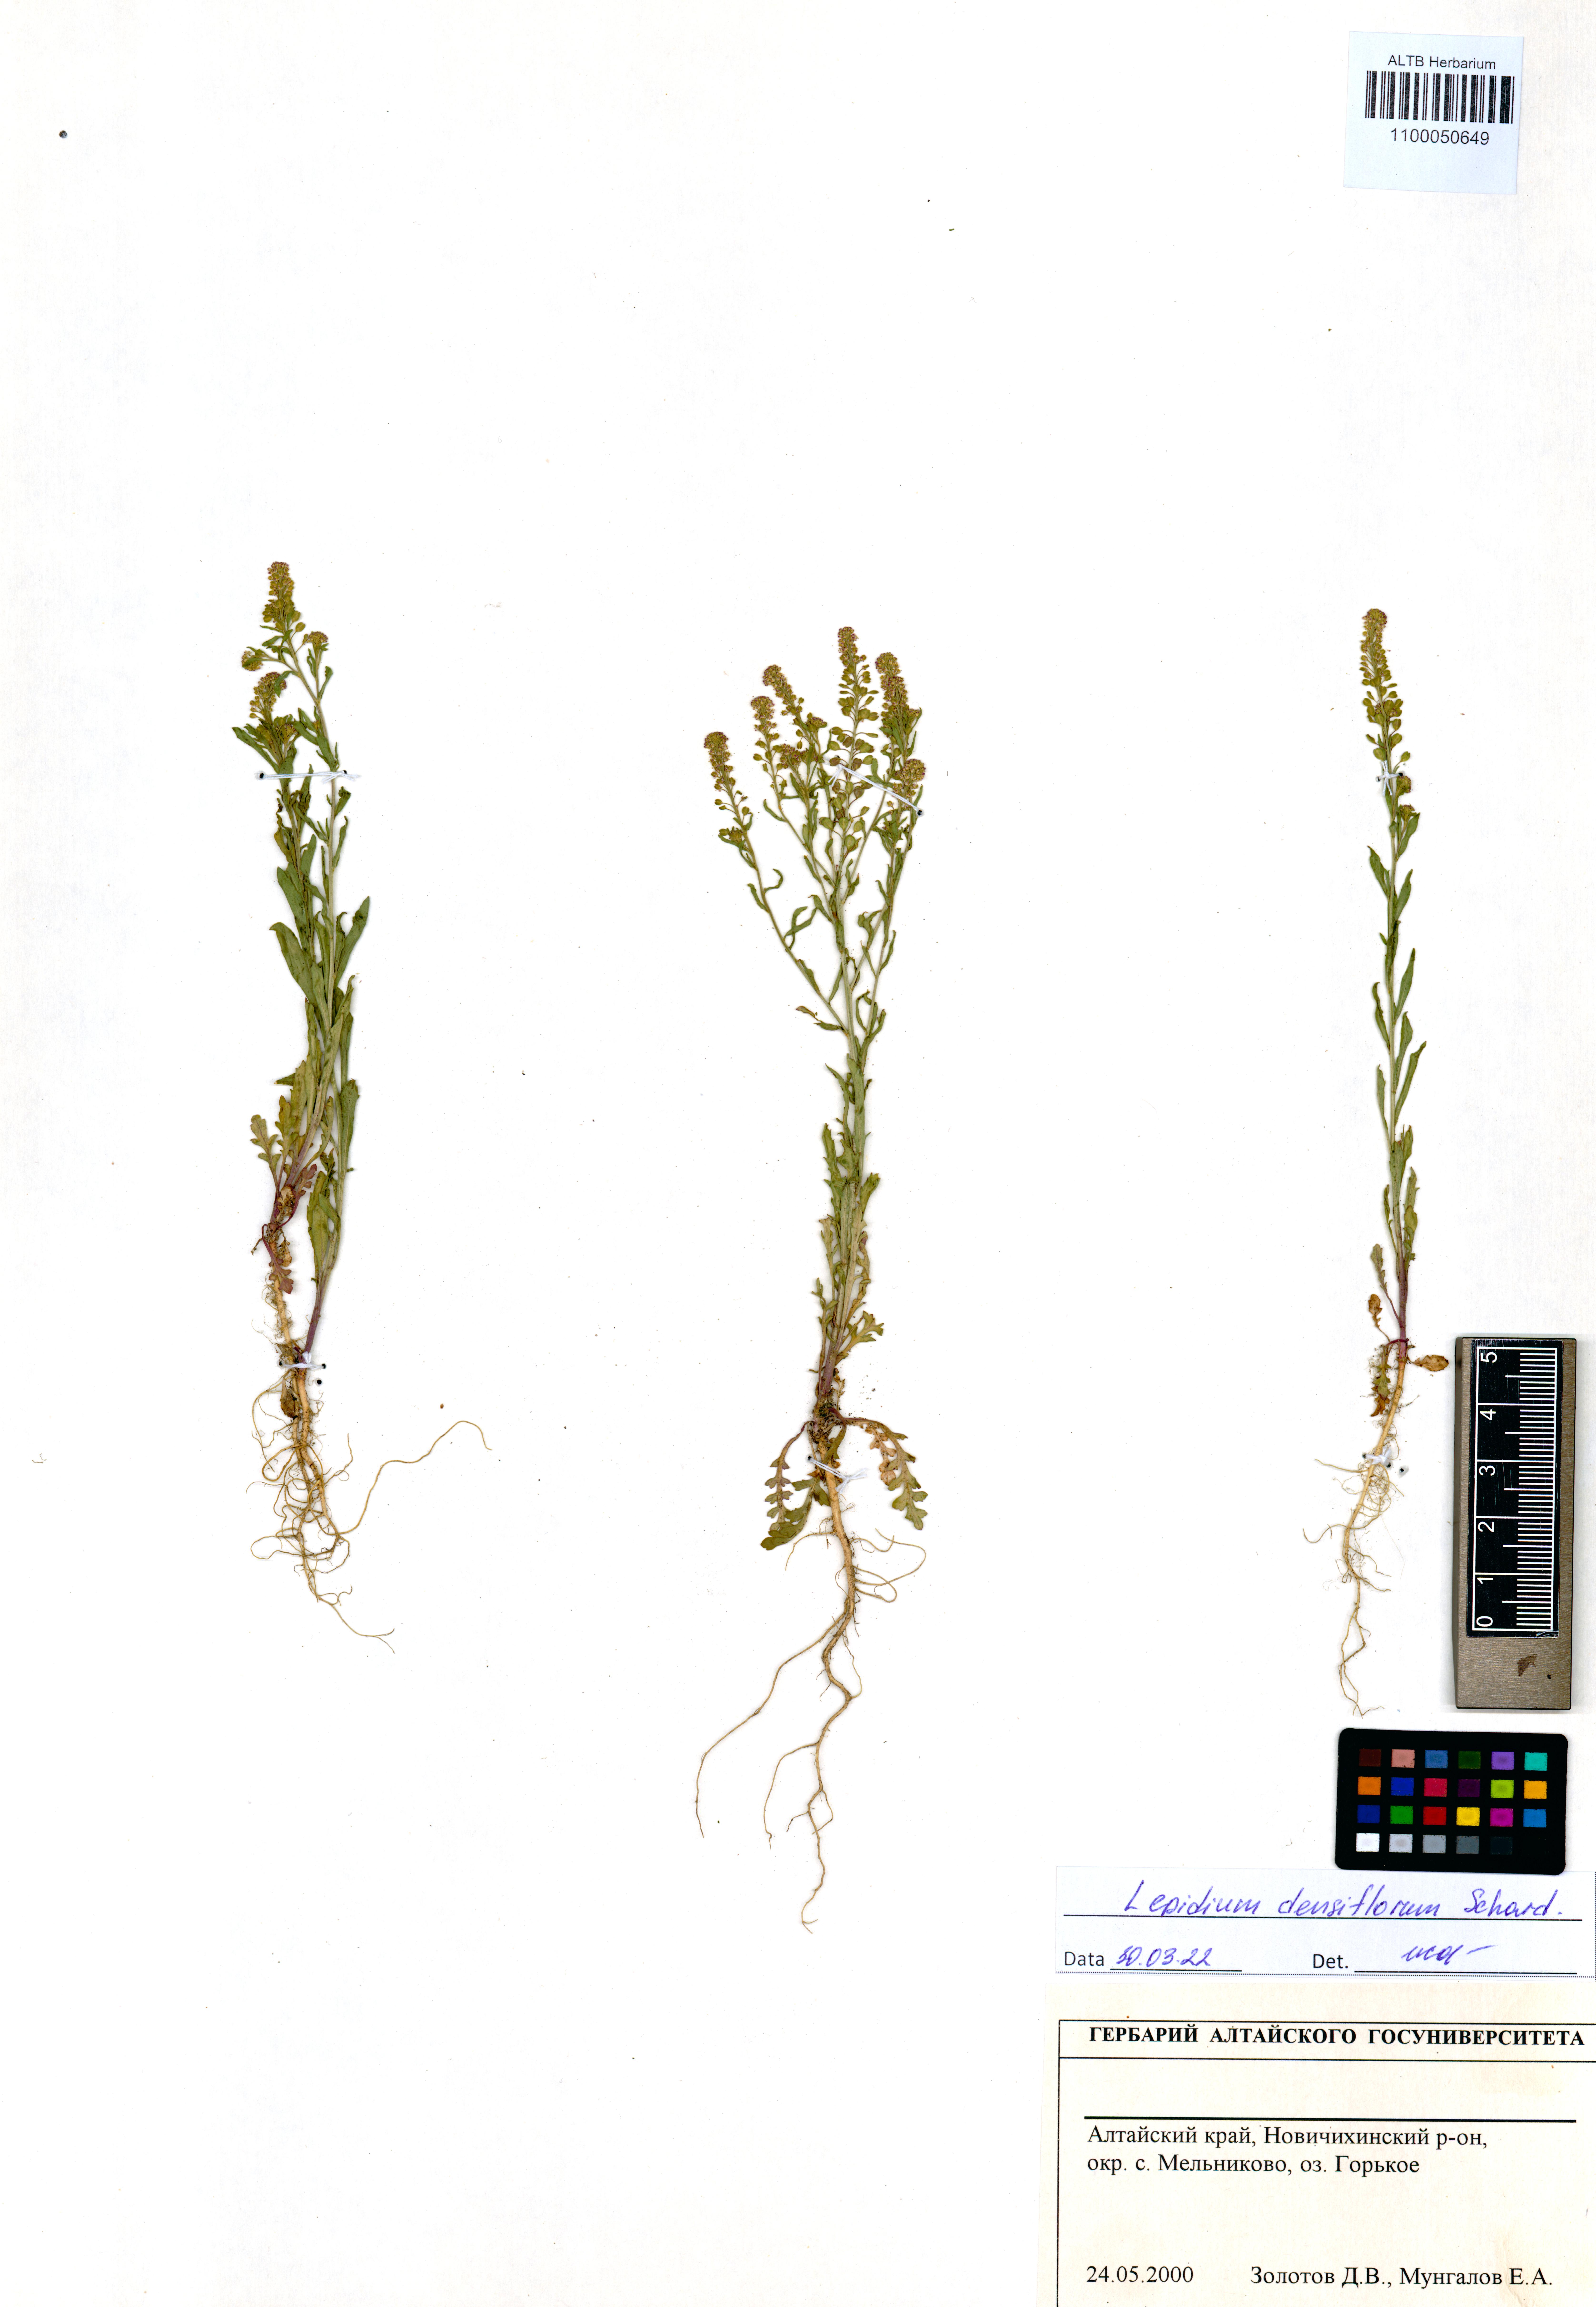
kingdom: Plantae
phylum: Tracheophyta
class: Magnoliopsida
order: Brassicales
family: Brassicaceae
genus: Lepidium
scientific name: Lepidium densiflorum
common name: Miner's pepperwort
